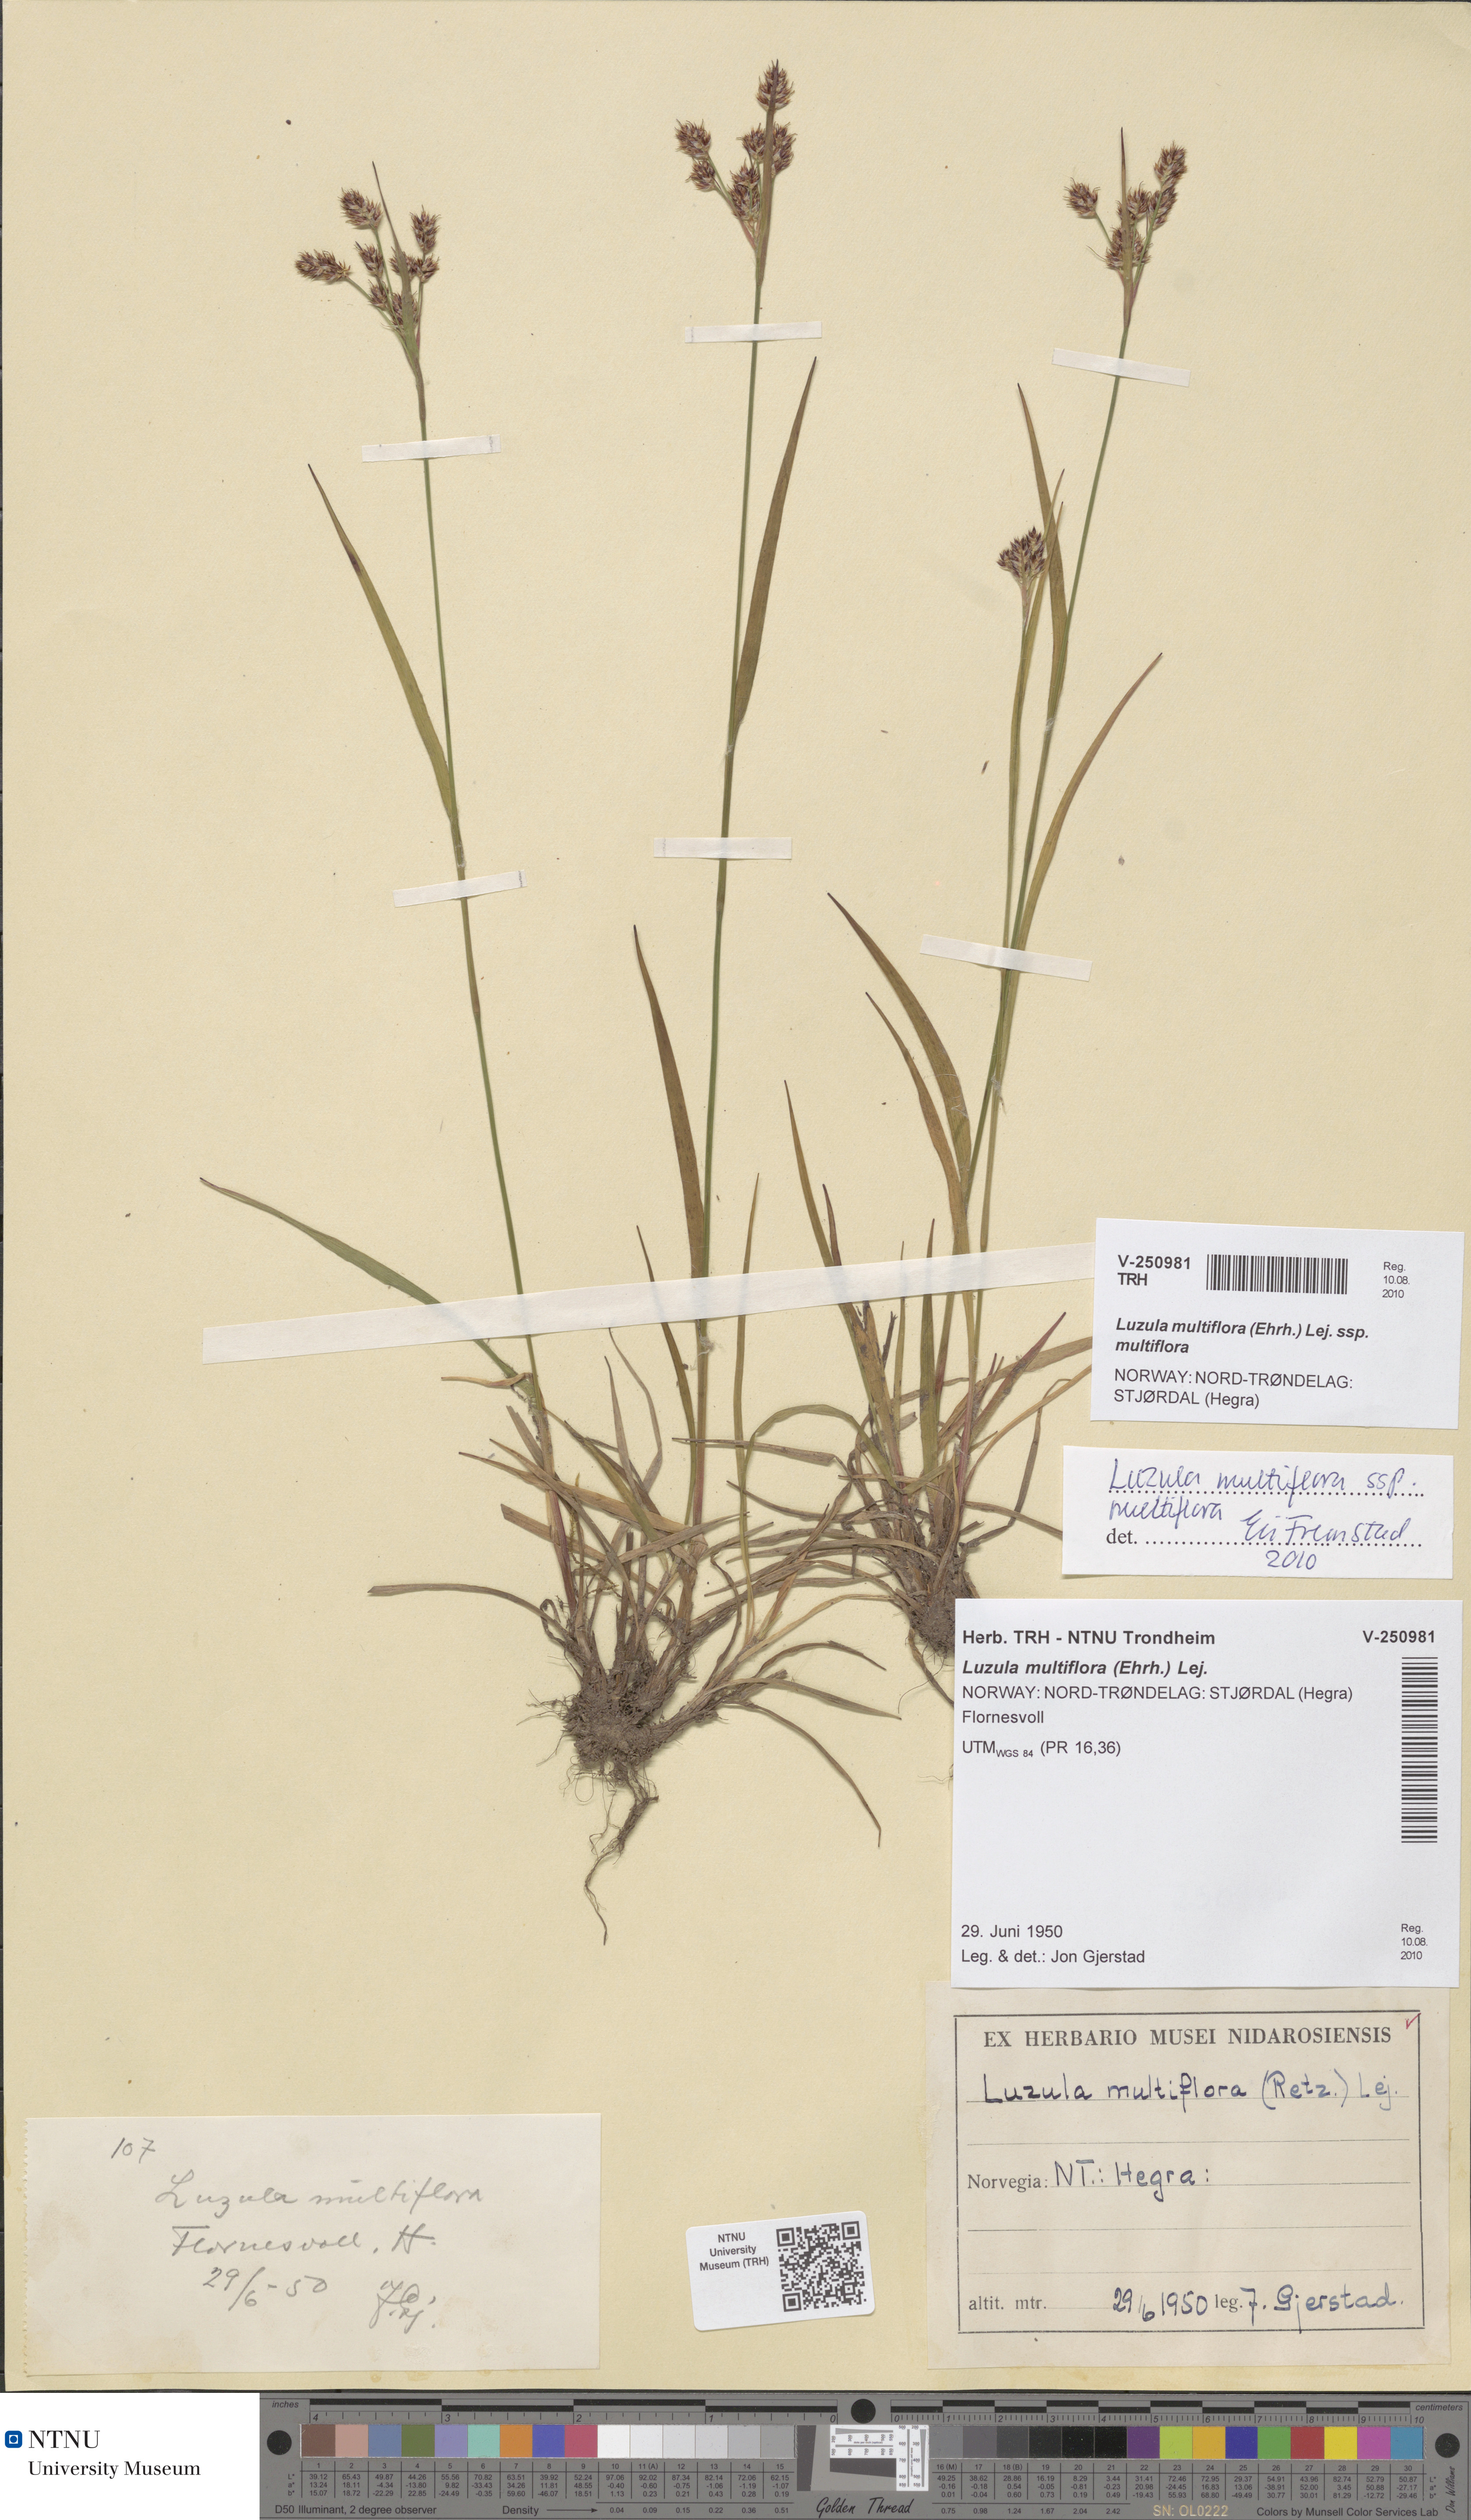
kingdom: Plantae
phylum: Tracheophyta
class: Liliopsida
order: Poales
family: Juncaceae
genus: Luzula
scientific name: Luzula multiflora
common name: Heath wood-rush
